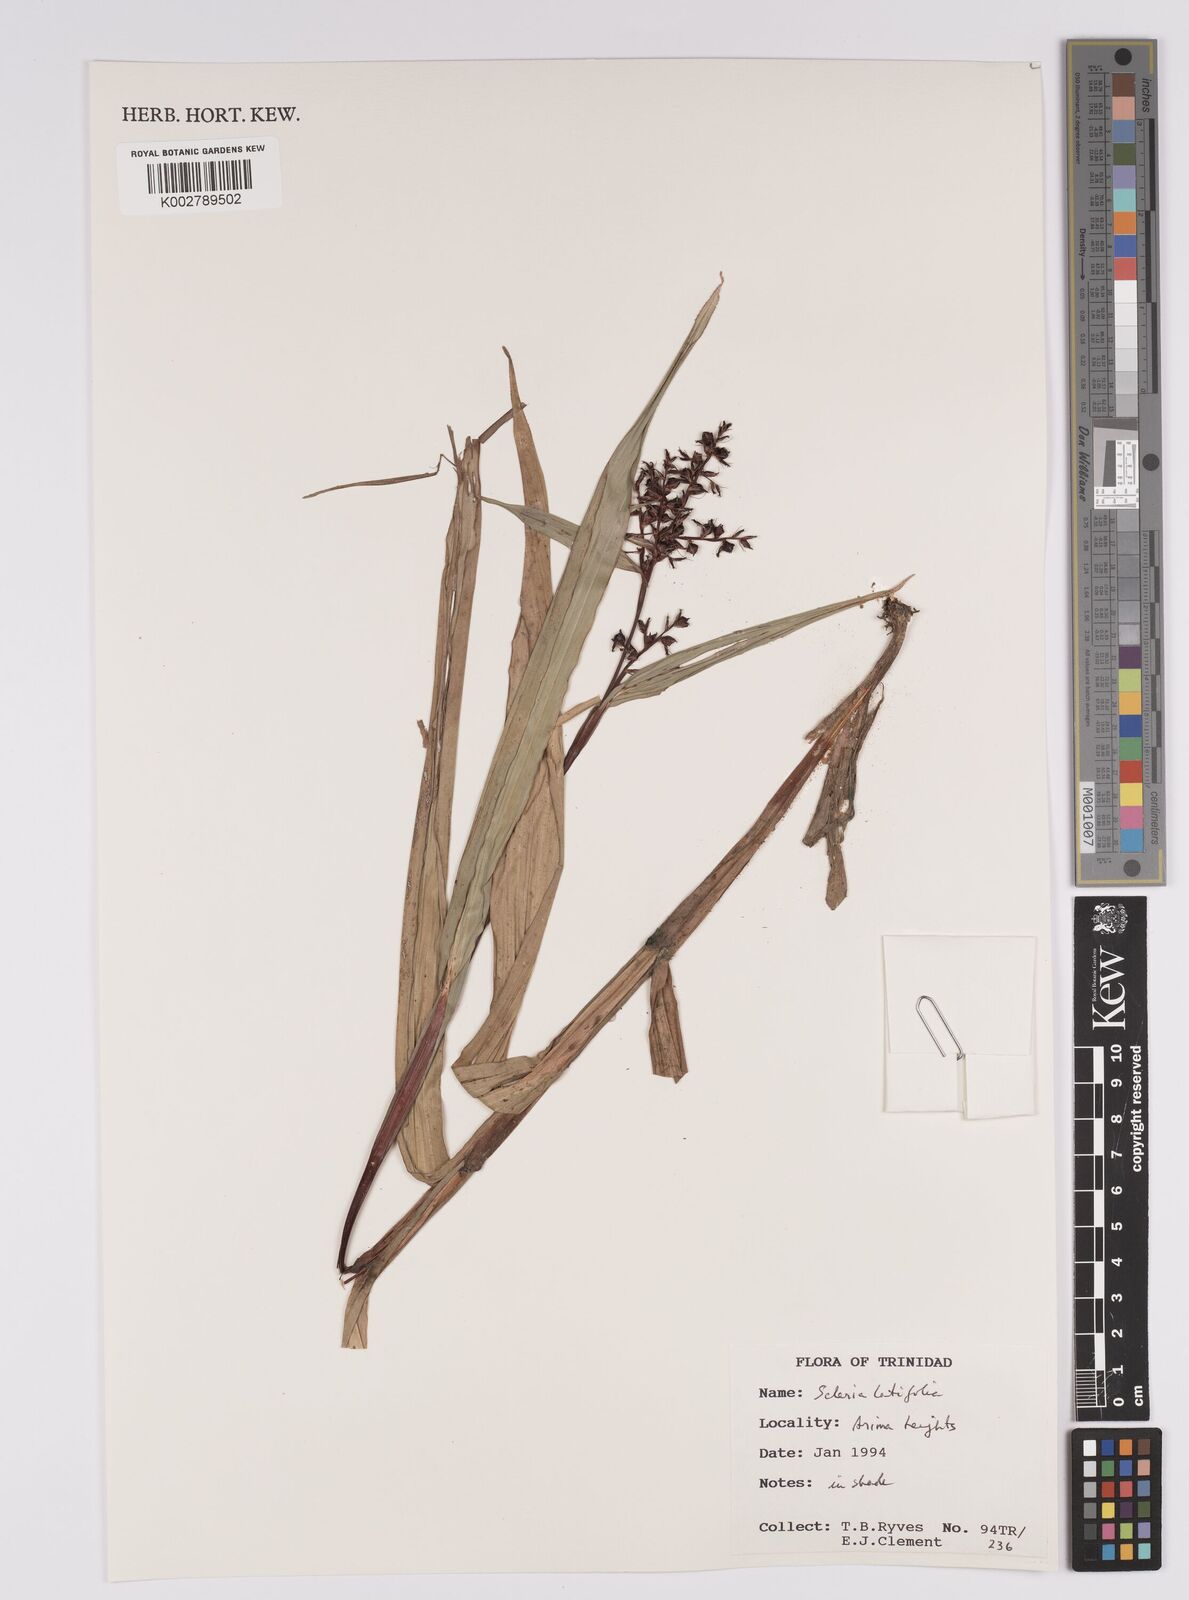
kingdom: Plantae
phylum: Tracheophyta
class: Liliopsida
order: Poales
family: Cyperaceae
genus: Scleria
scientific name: Scleria latifolia
